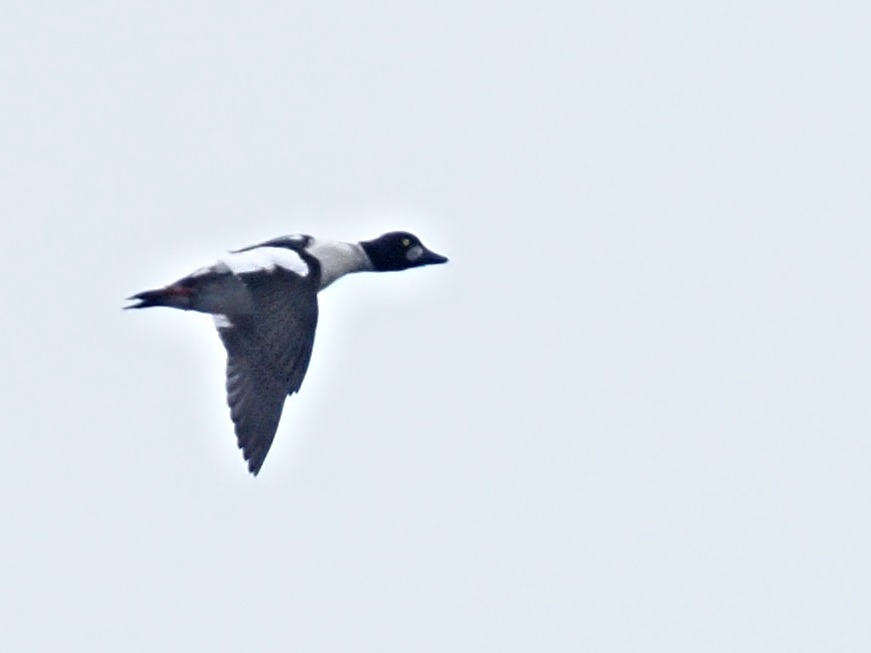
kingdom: Animalia
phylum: Chordata
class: Aves
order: Anseriformes
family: Anatidae
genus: Bucephala
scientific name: Bucephala clangula
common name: Hvinand
